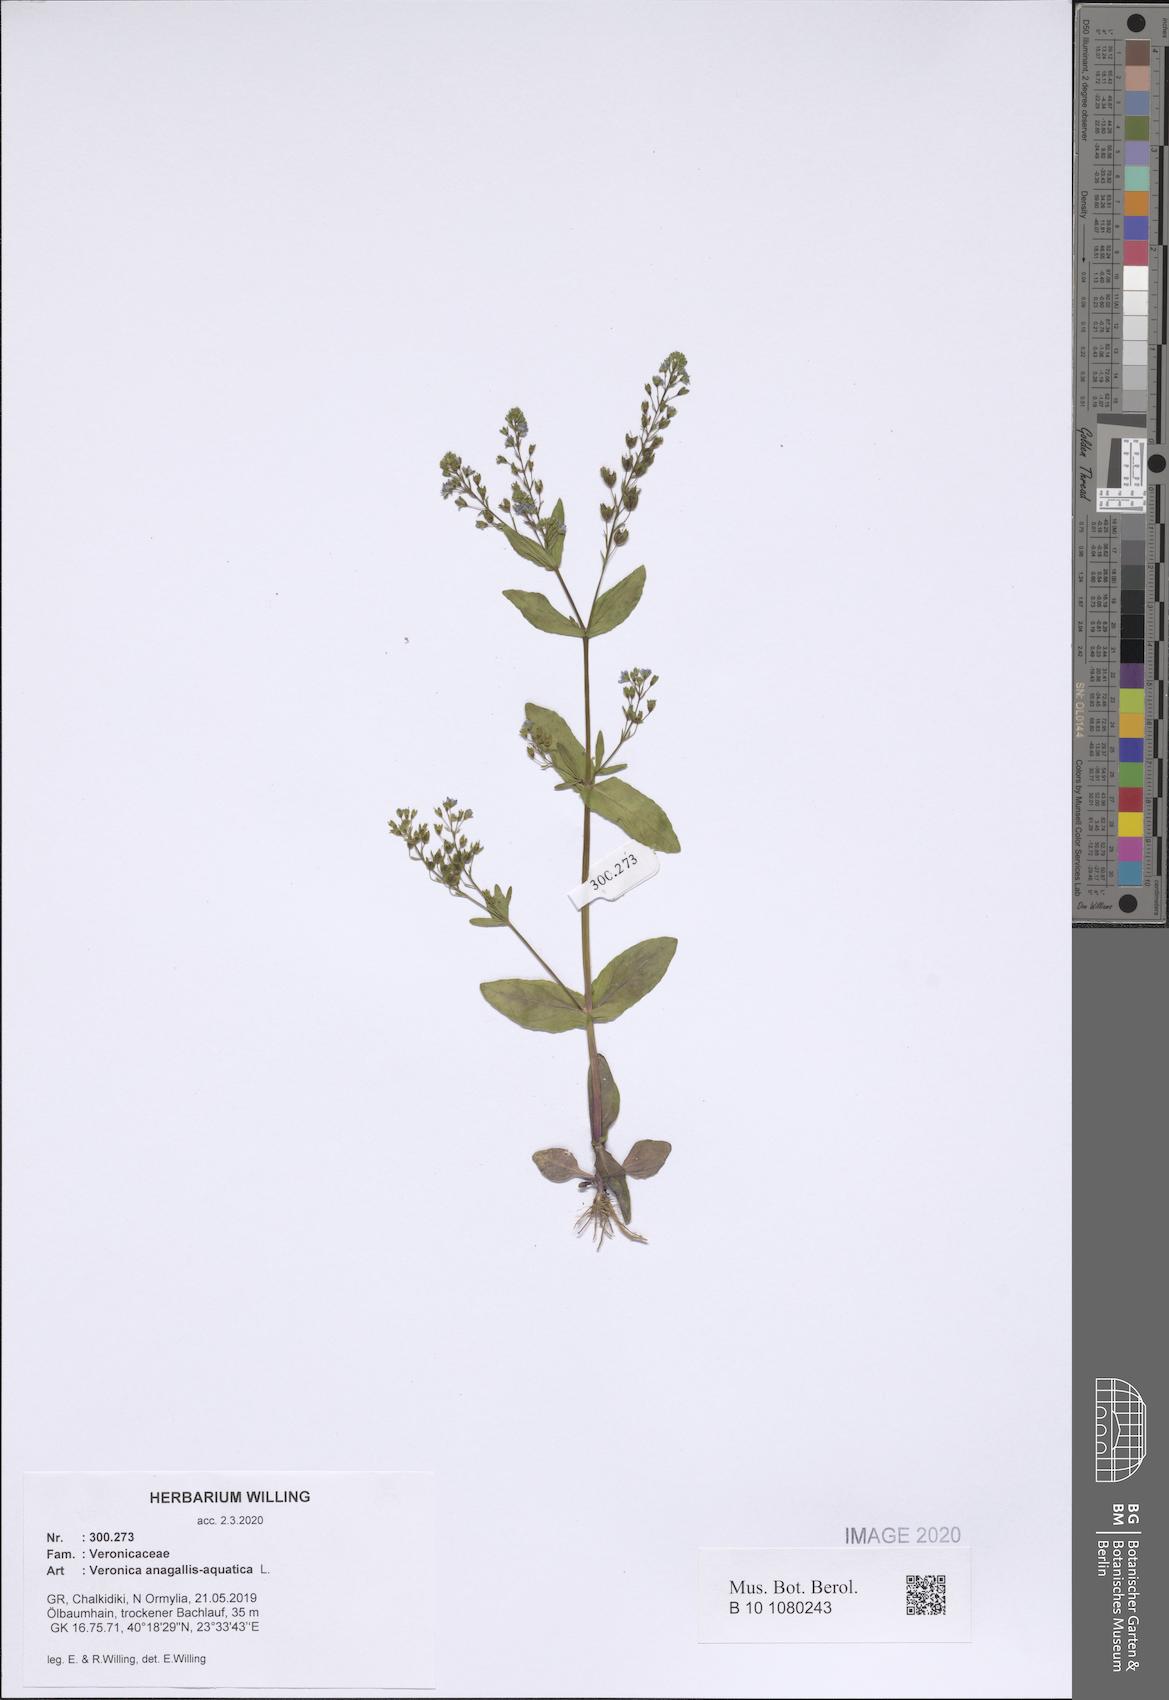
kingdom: Plantae
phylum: Tracheophyta
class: Magnoliopsida
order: Lamiales
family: Plantaginaceae
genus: Veronica
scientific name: Veronica anagallis-aquatica
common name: Water speedwell
